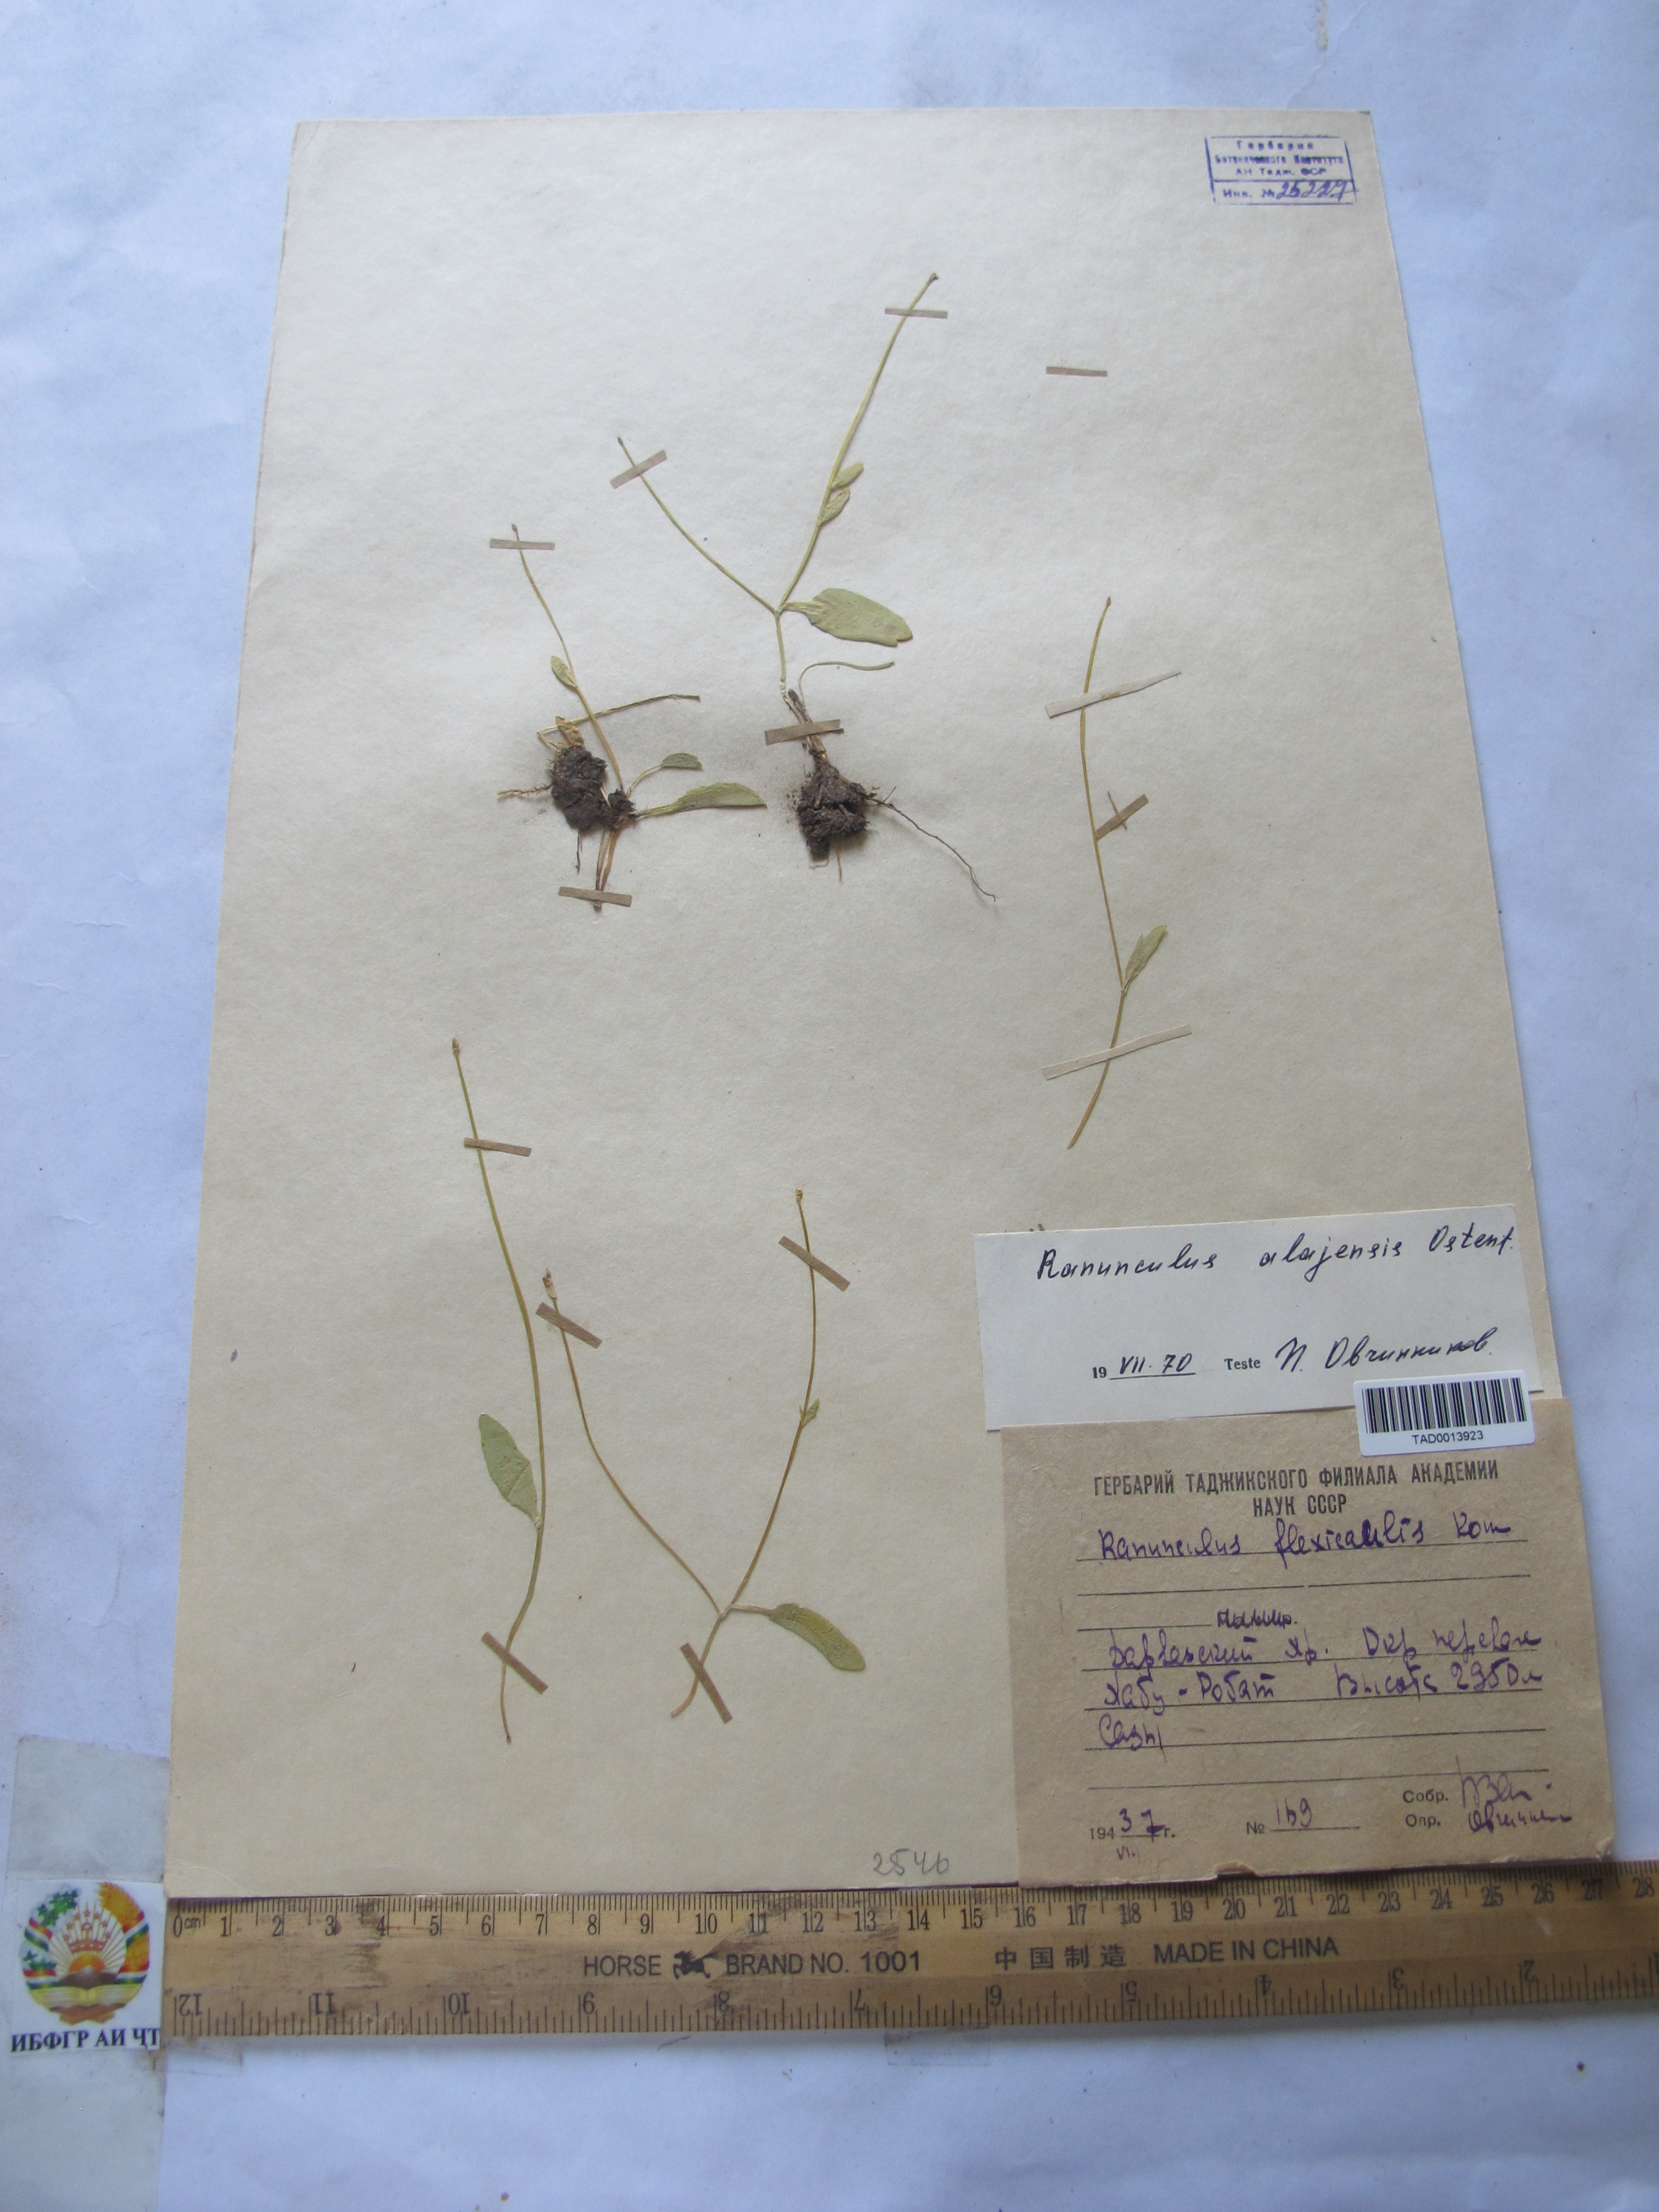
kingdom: Plantae
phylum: Tracheophyta
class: Magnoliopsida
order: Ranunculales
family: Ranunculaceae
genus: Ranunculus
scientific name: Ranunculus alaiensis
